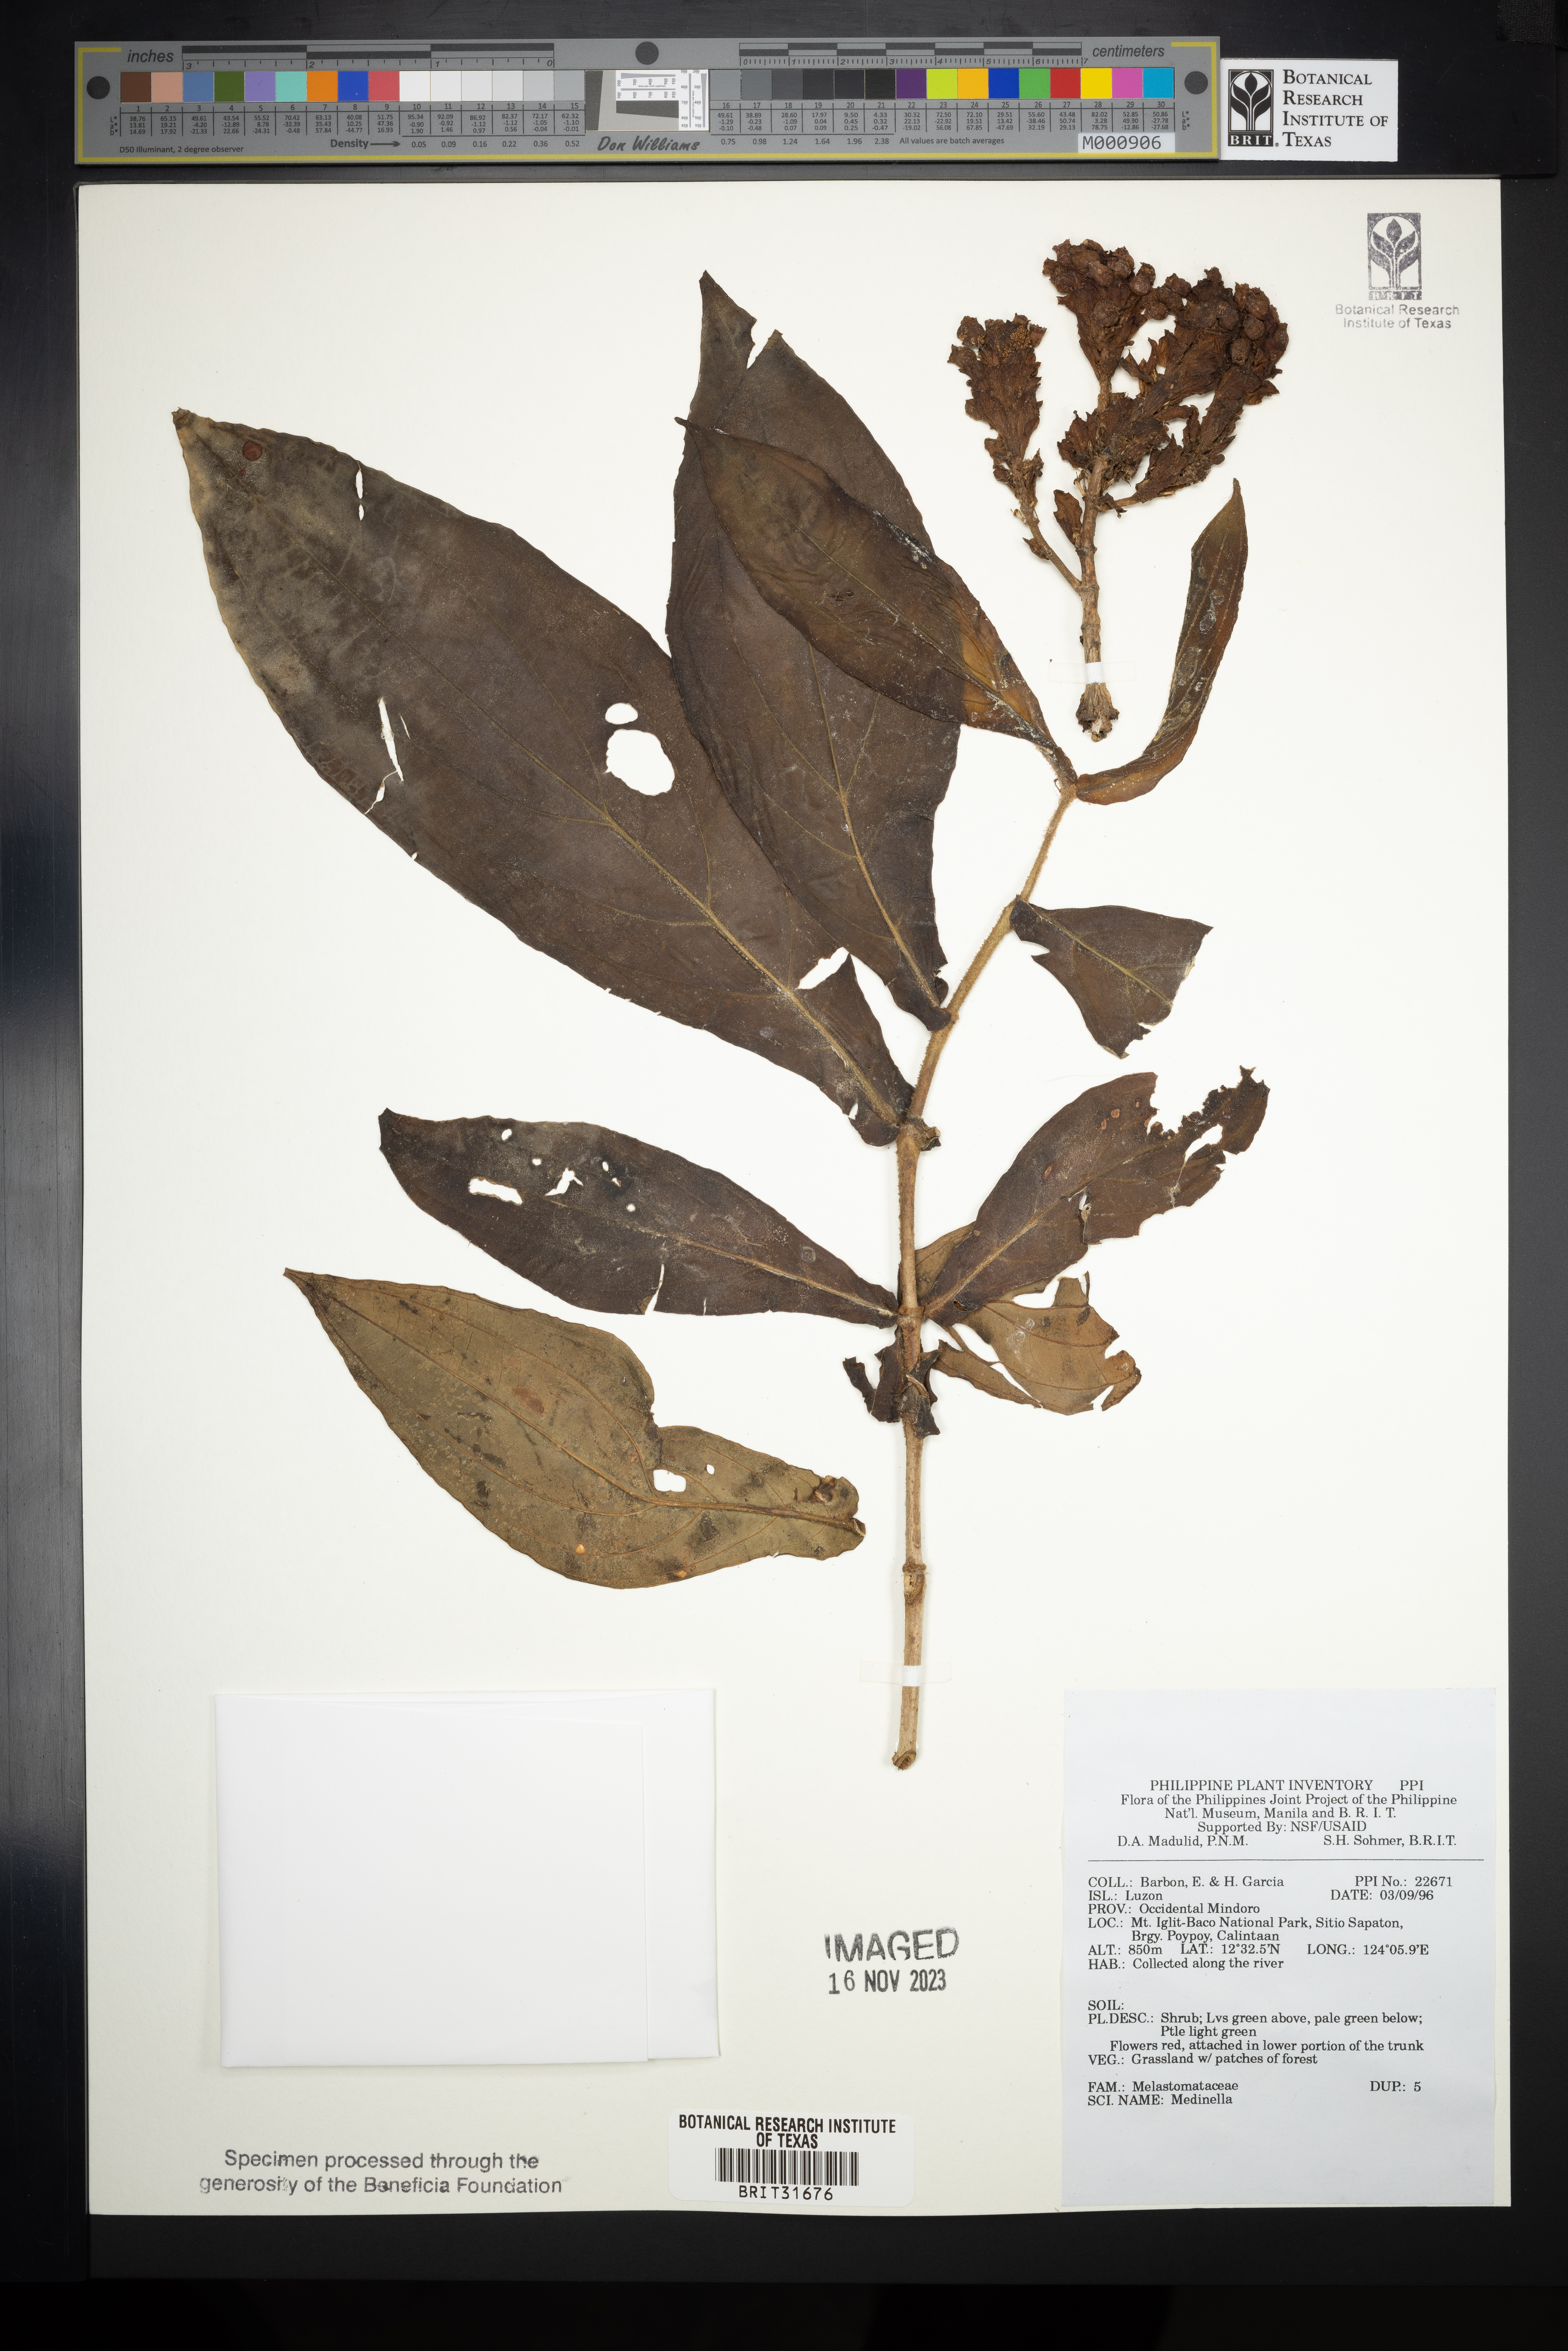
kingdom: Plantae
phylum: Tracheophyta
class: Magnoliopsida
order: Myrtales
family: Melastomataceae
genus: Medinilla
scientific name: Medinilla
